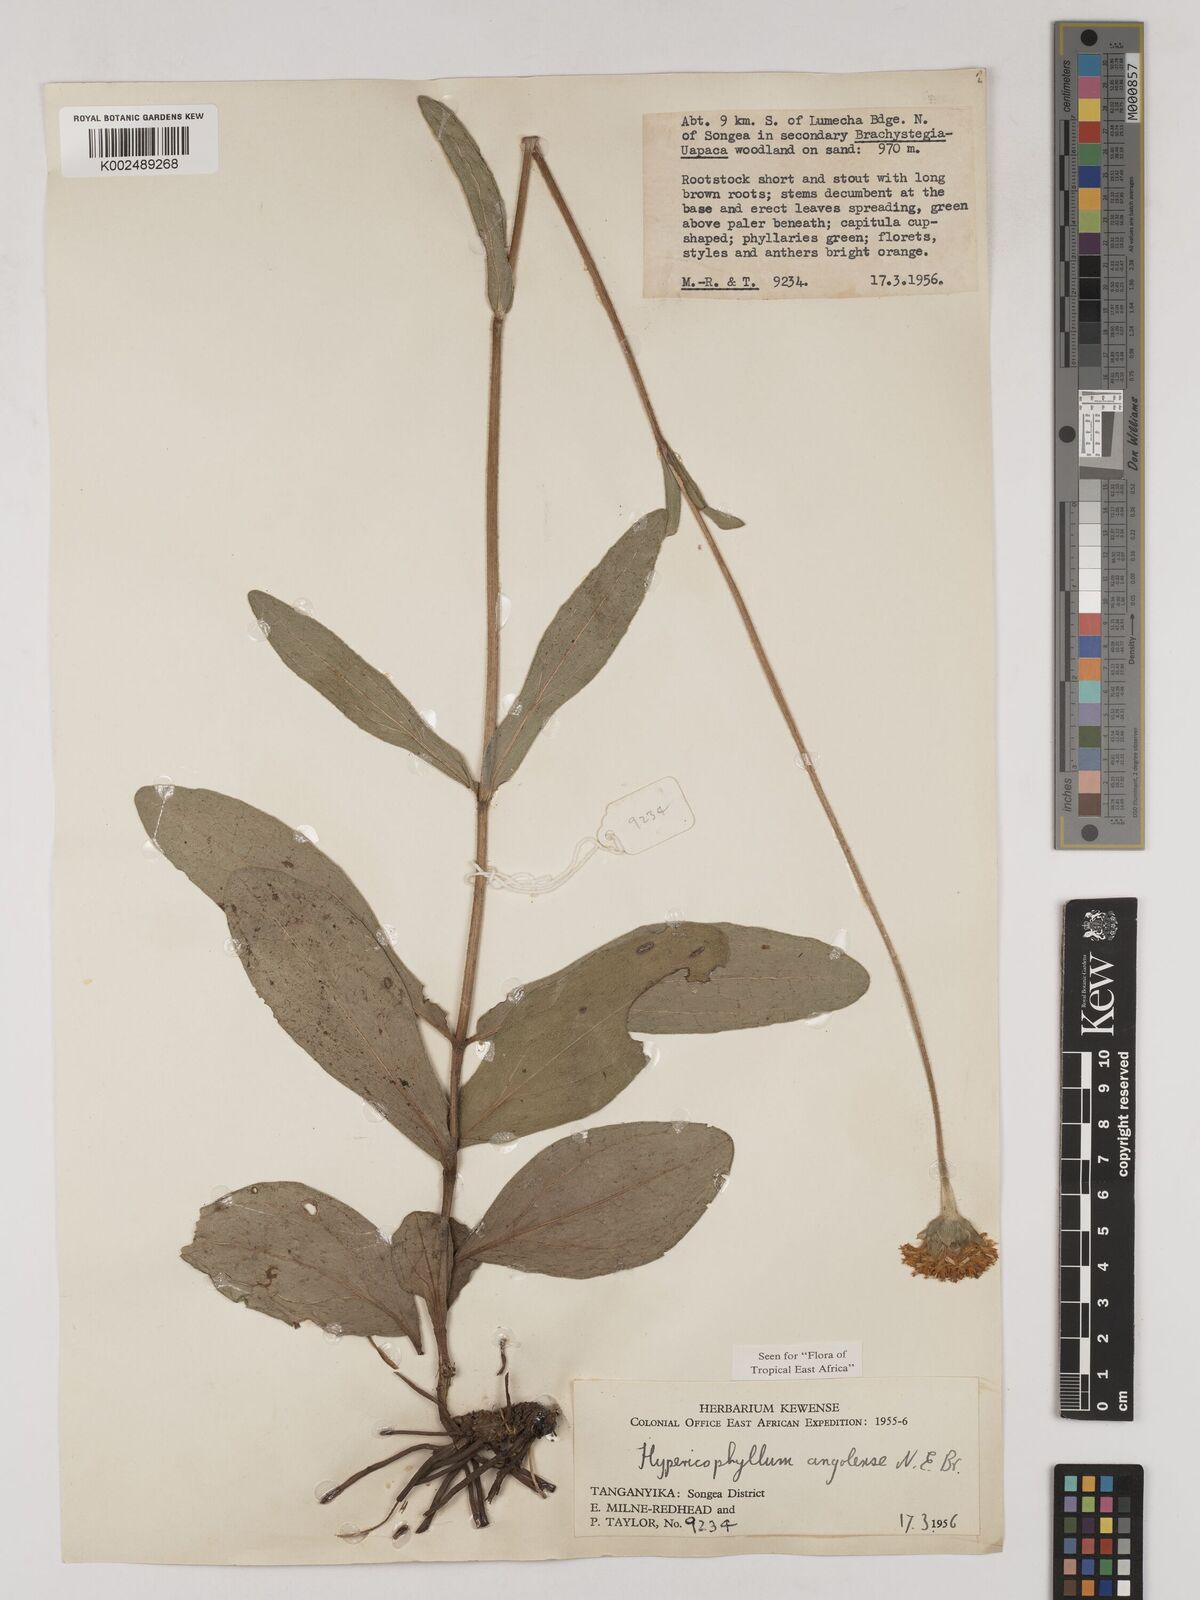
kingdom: Plantae
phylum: Tracheophyta
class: Magnoliopsida
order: Asterales
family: Asteraceae
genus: Hypericophyllum
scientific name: Hypericophyllum angolense
